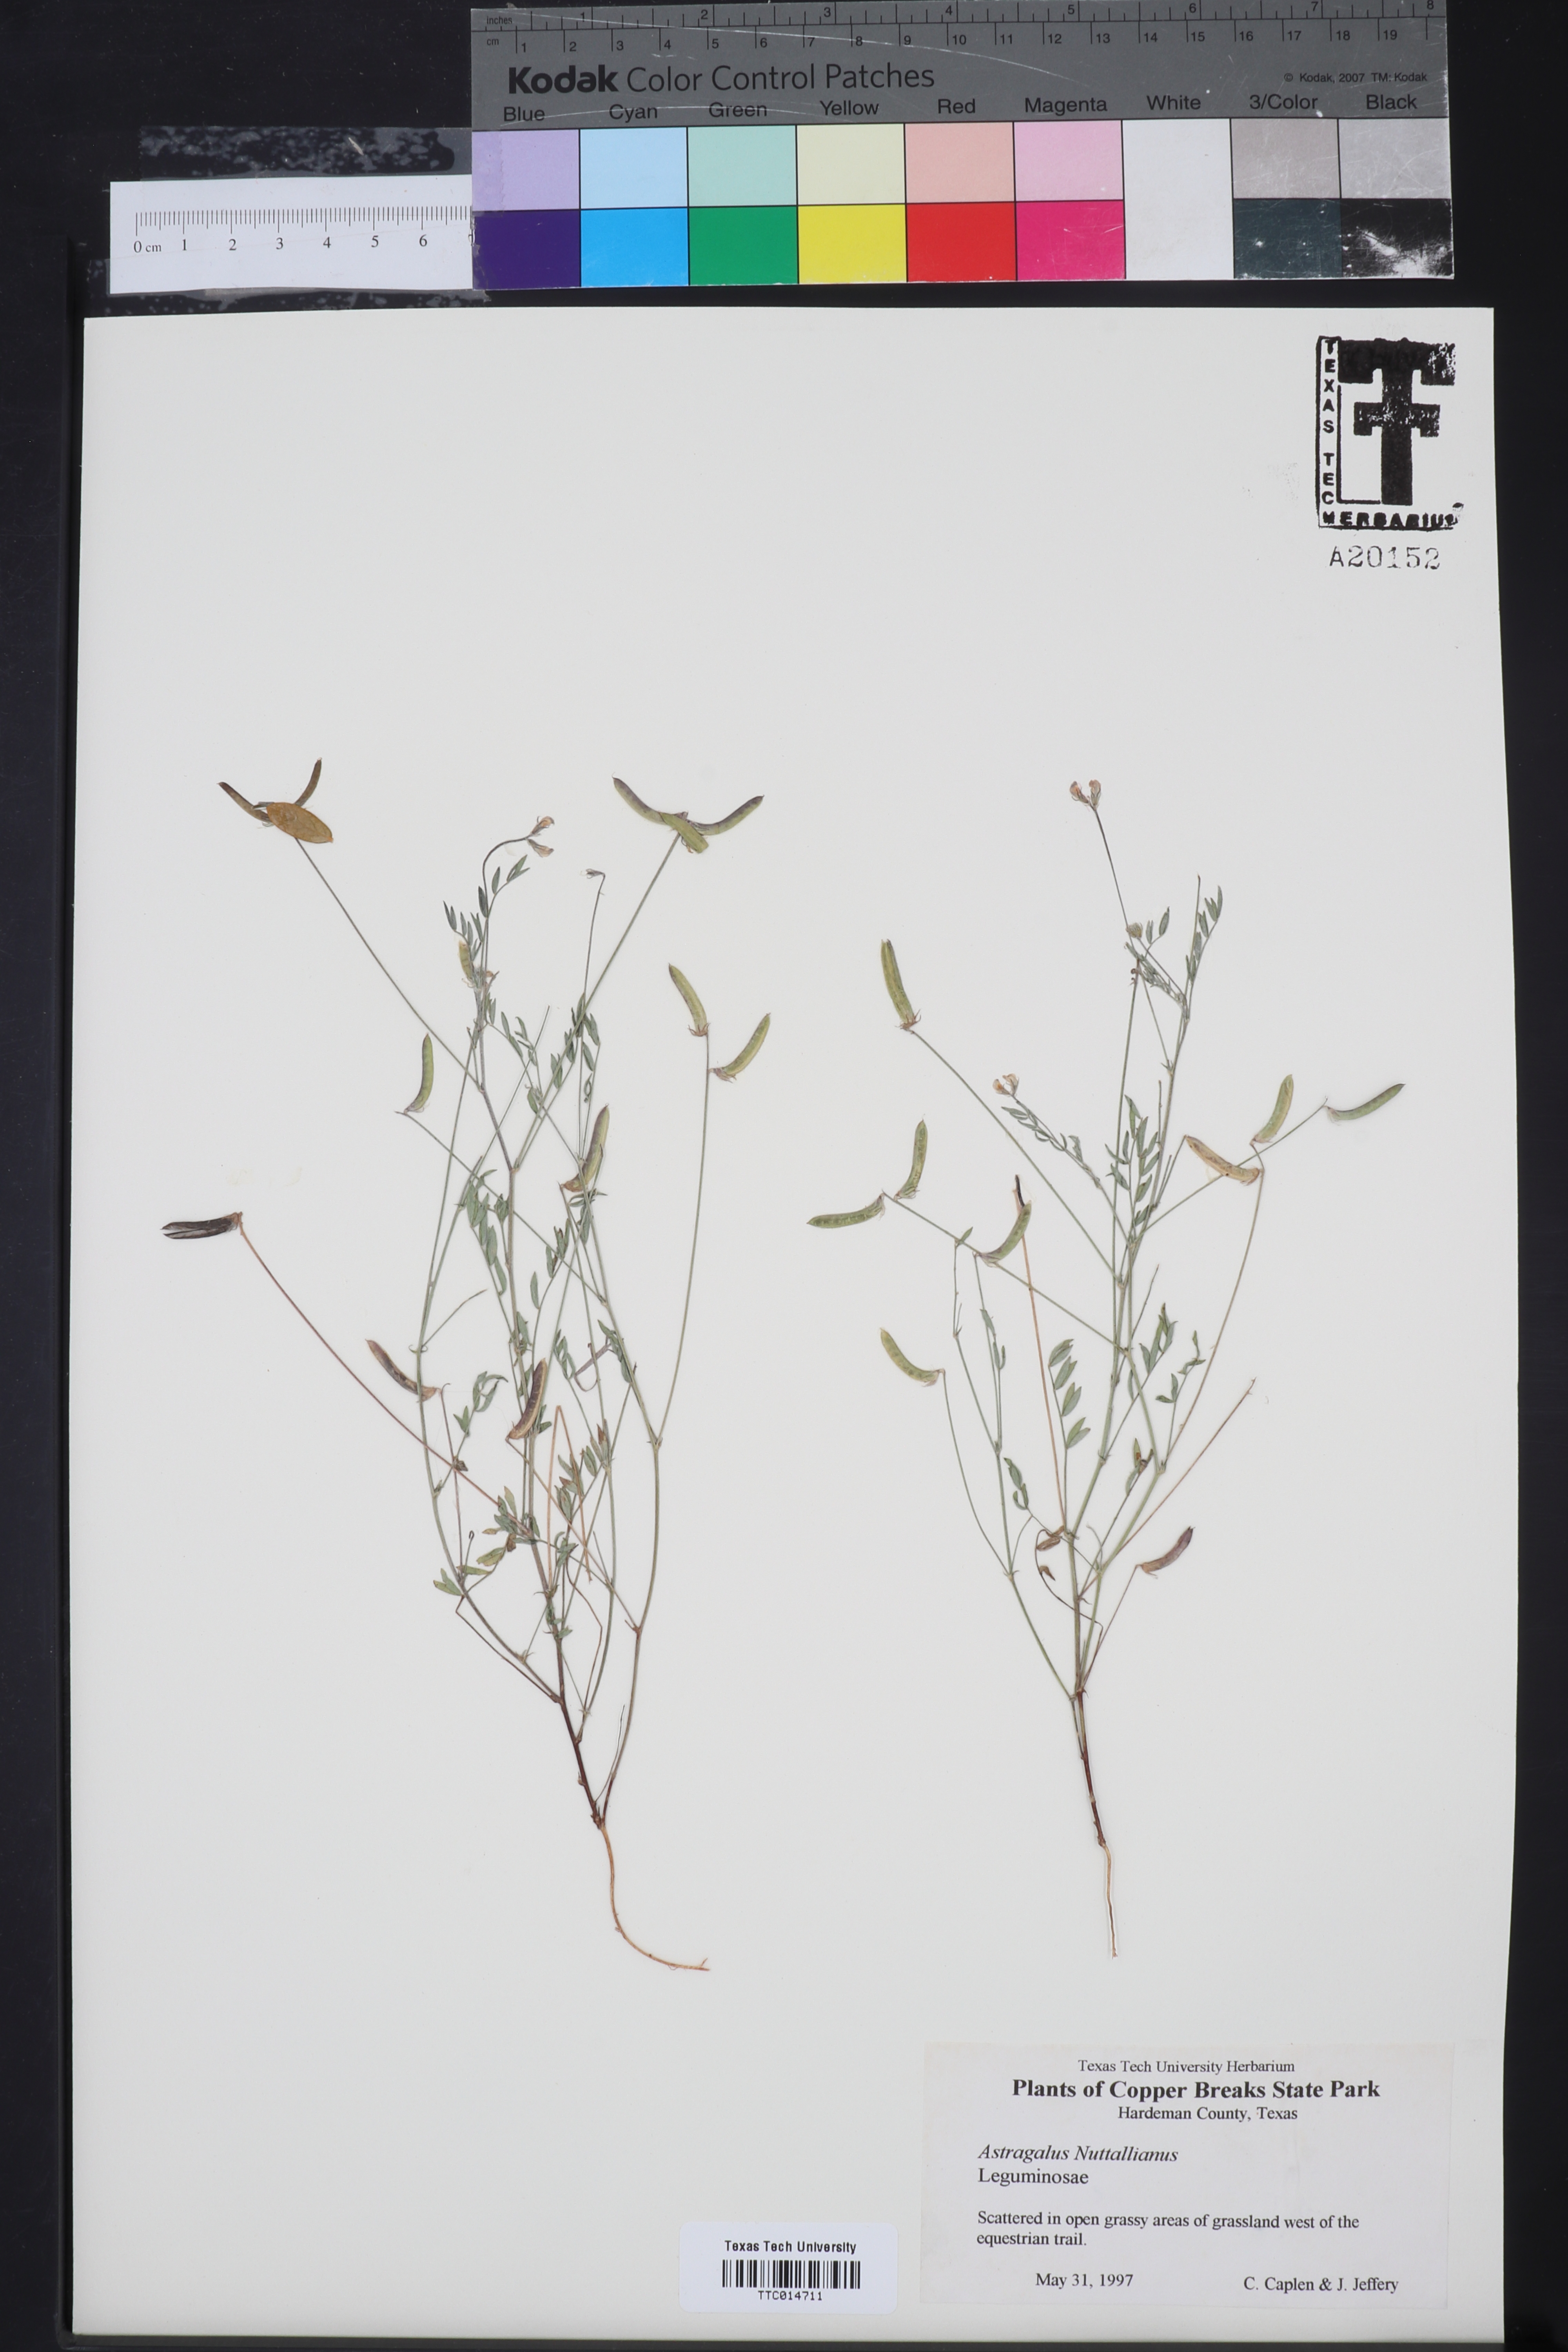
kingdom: Plantae
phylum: Tracheophyta
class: Magnoliopsida
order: Fabales
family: Fabaceae
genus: Astragalus
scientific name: Astragalus nuttallianus
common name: Smallflowered milkvetch
